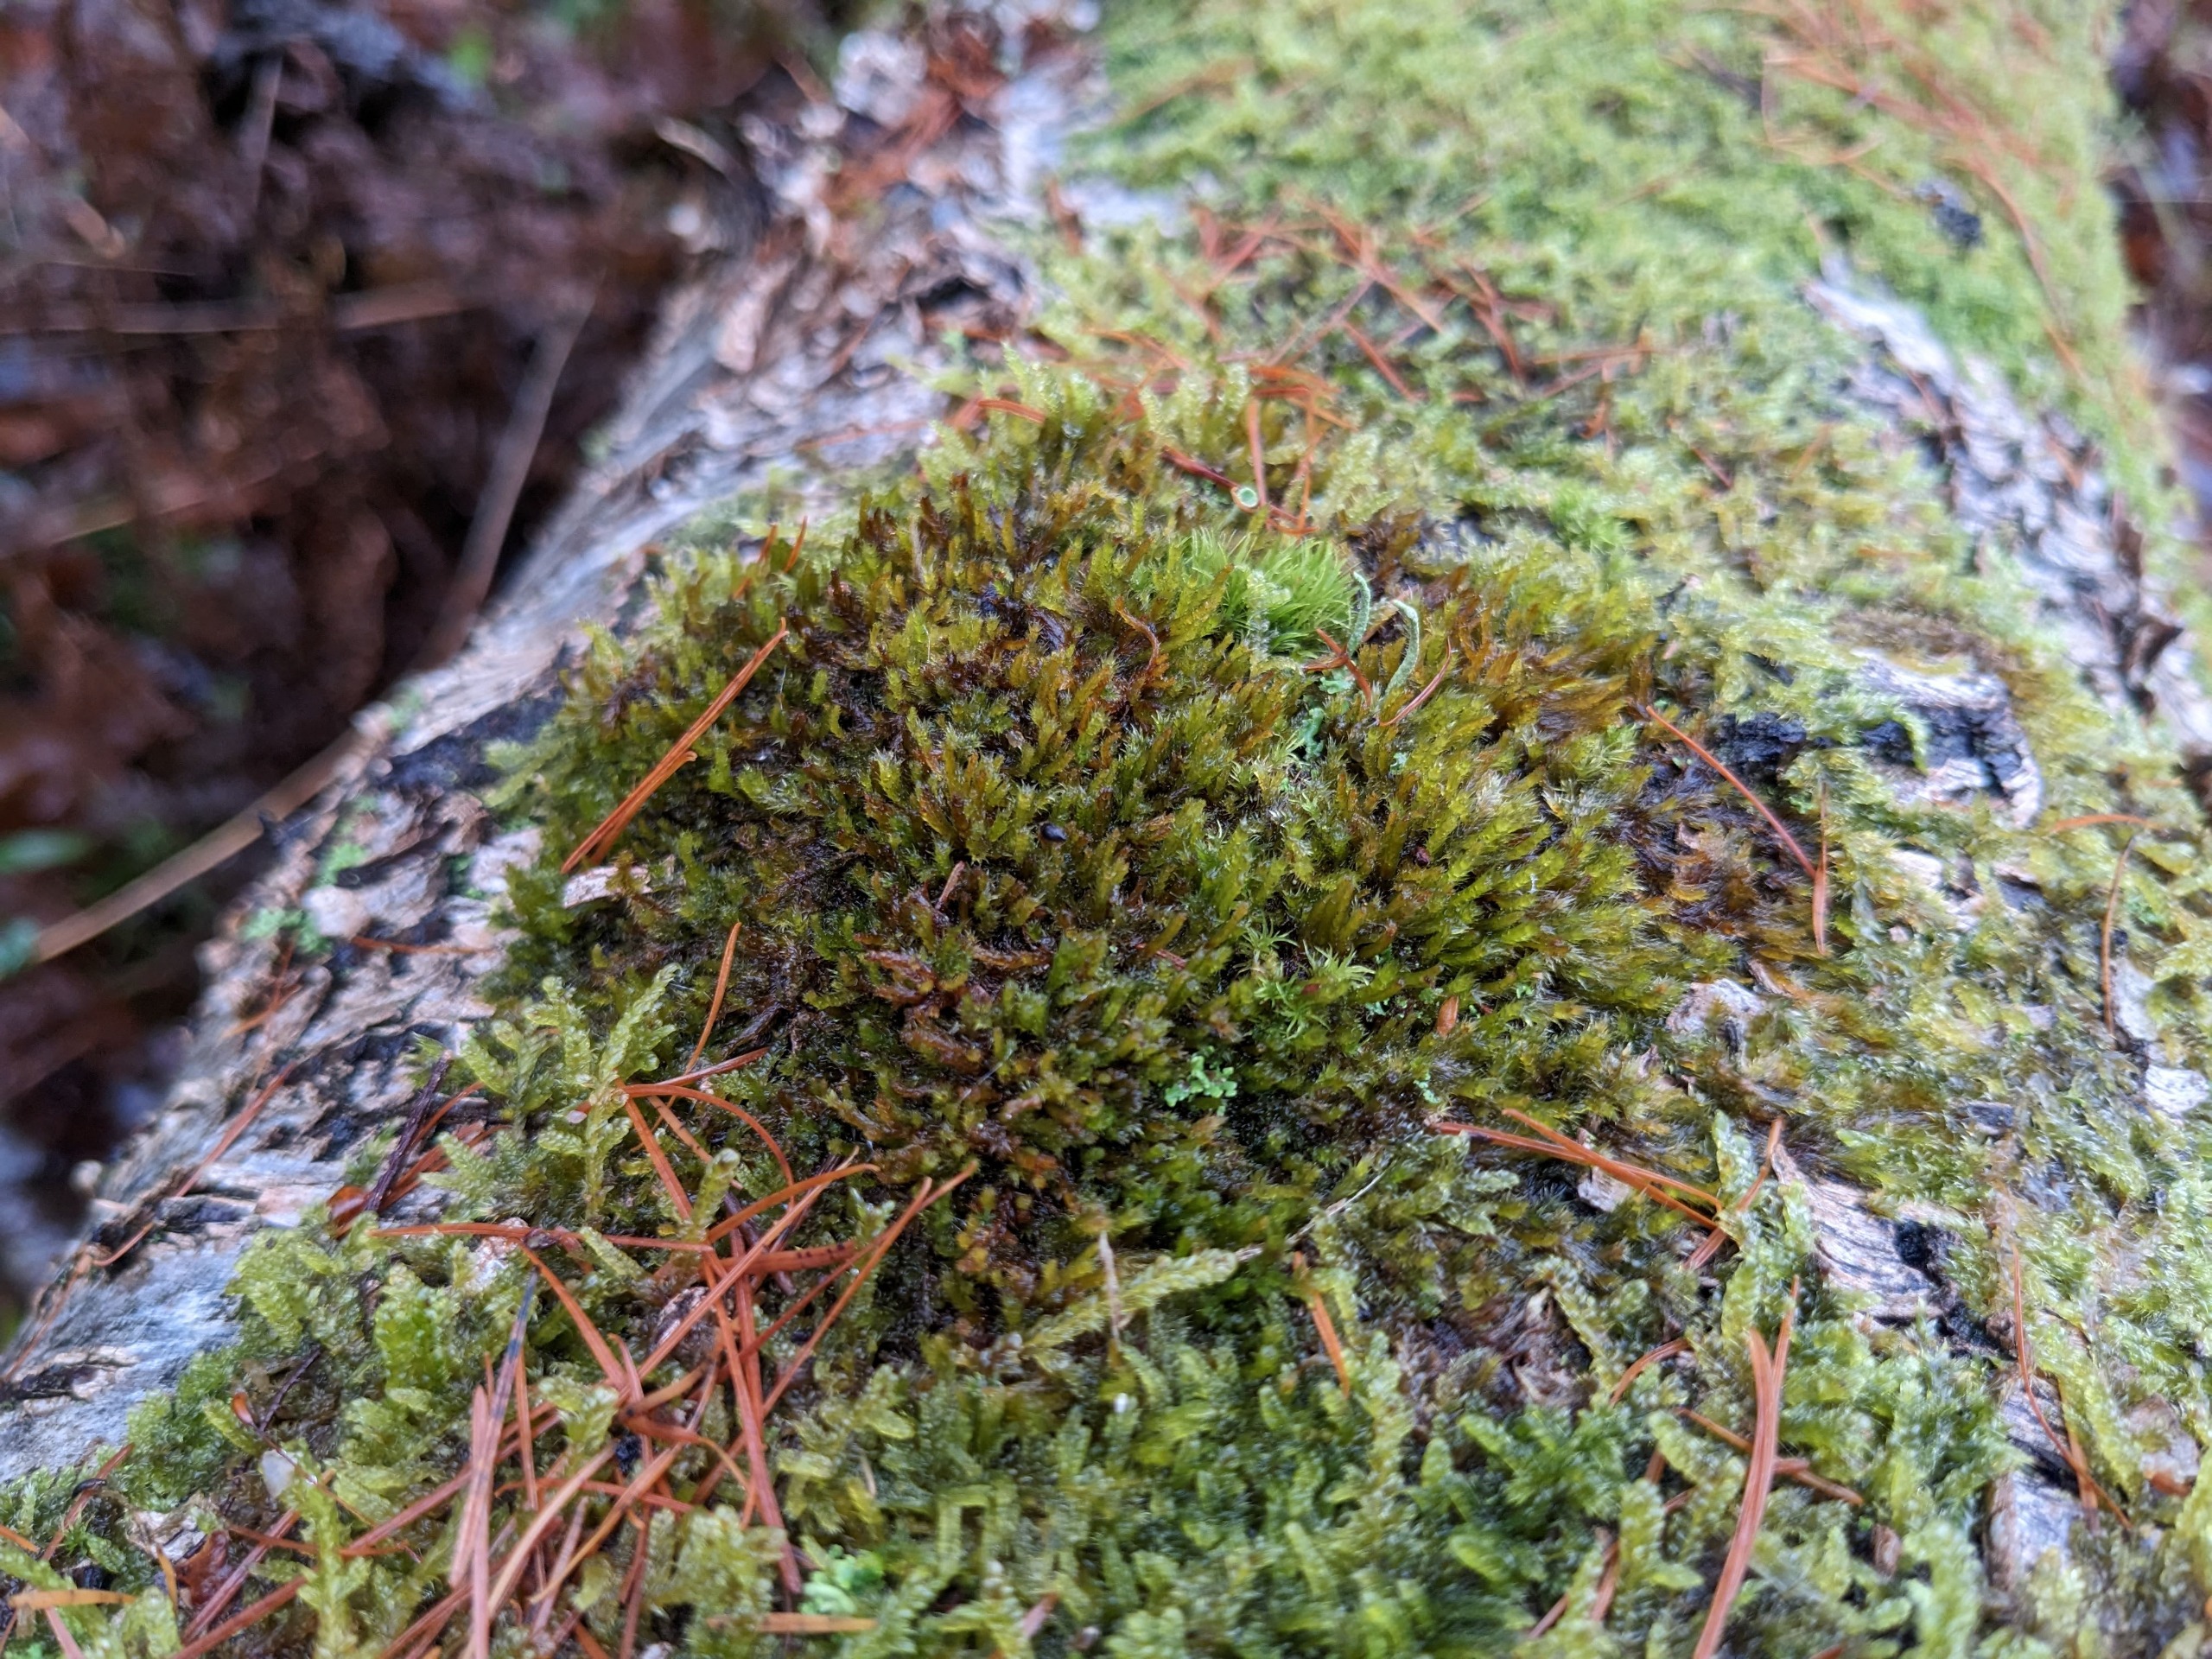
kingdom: Plantae
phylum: Bryophyta
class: Bryopsida
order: Hypnales
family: Pylaisiadelphaceae
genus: Platygyrium
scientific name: Platygyrium repens
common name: Mørk yngleknop
